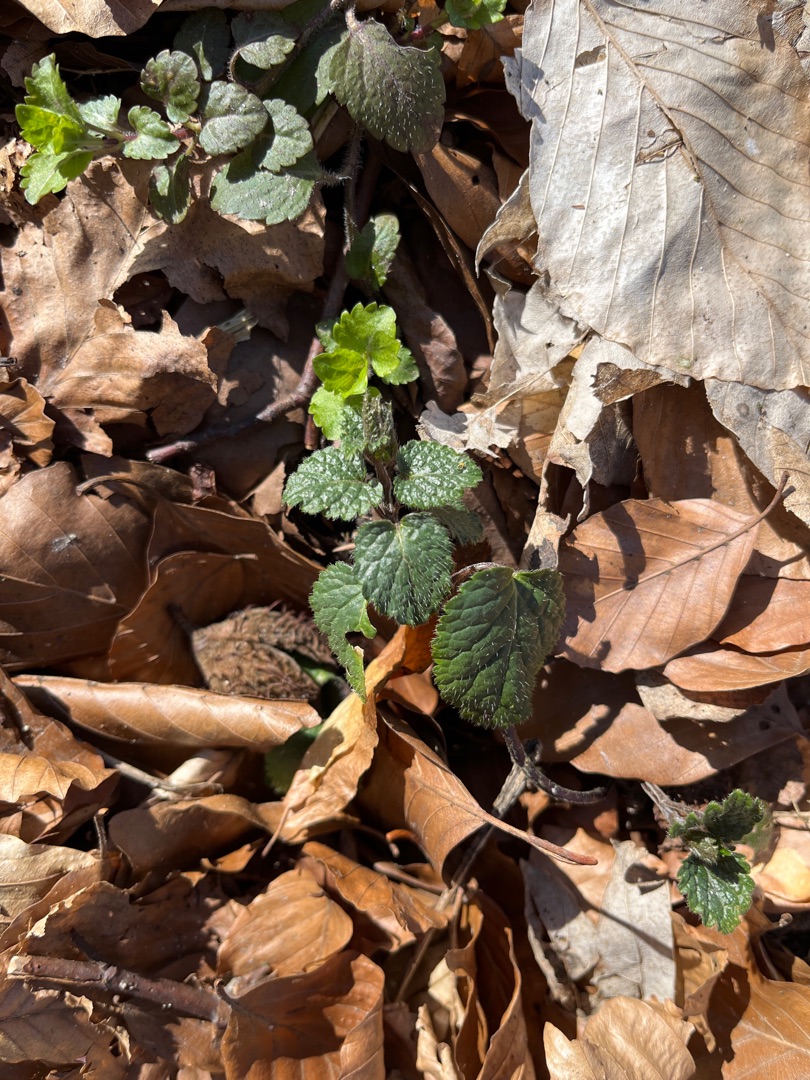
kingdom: Plantae
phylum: Tracheophyta
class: Magnoliopsida
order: Lamiales
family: Lamiaceae
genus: Lamium
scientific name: Lamium galeobdolon
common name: Almindelig guldnælde
